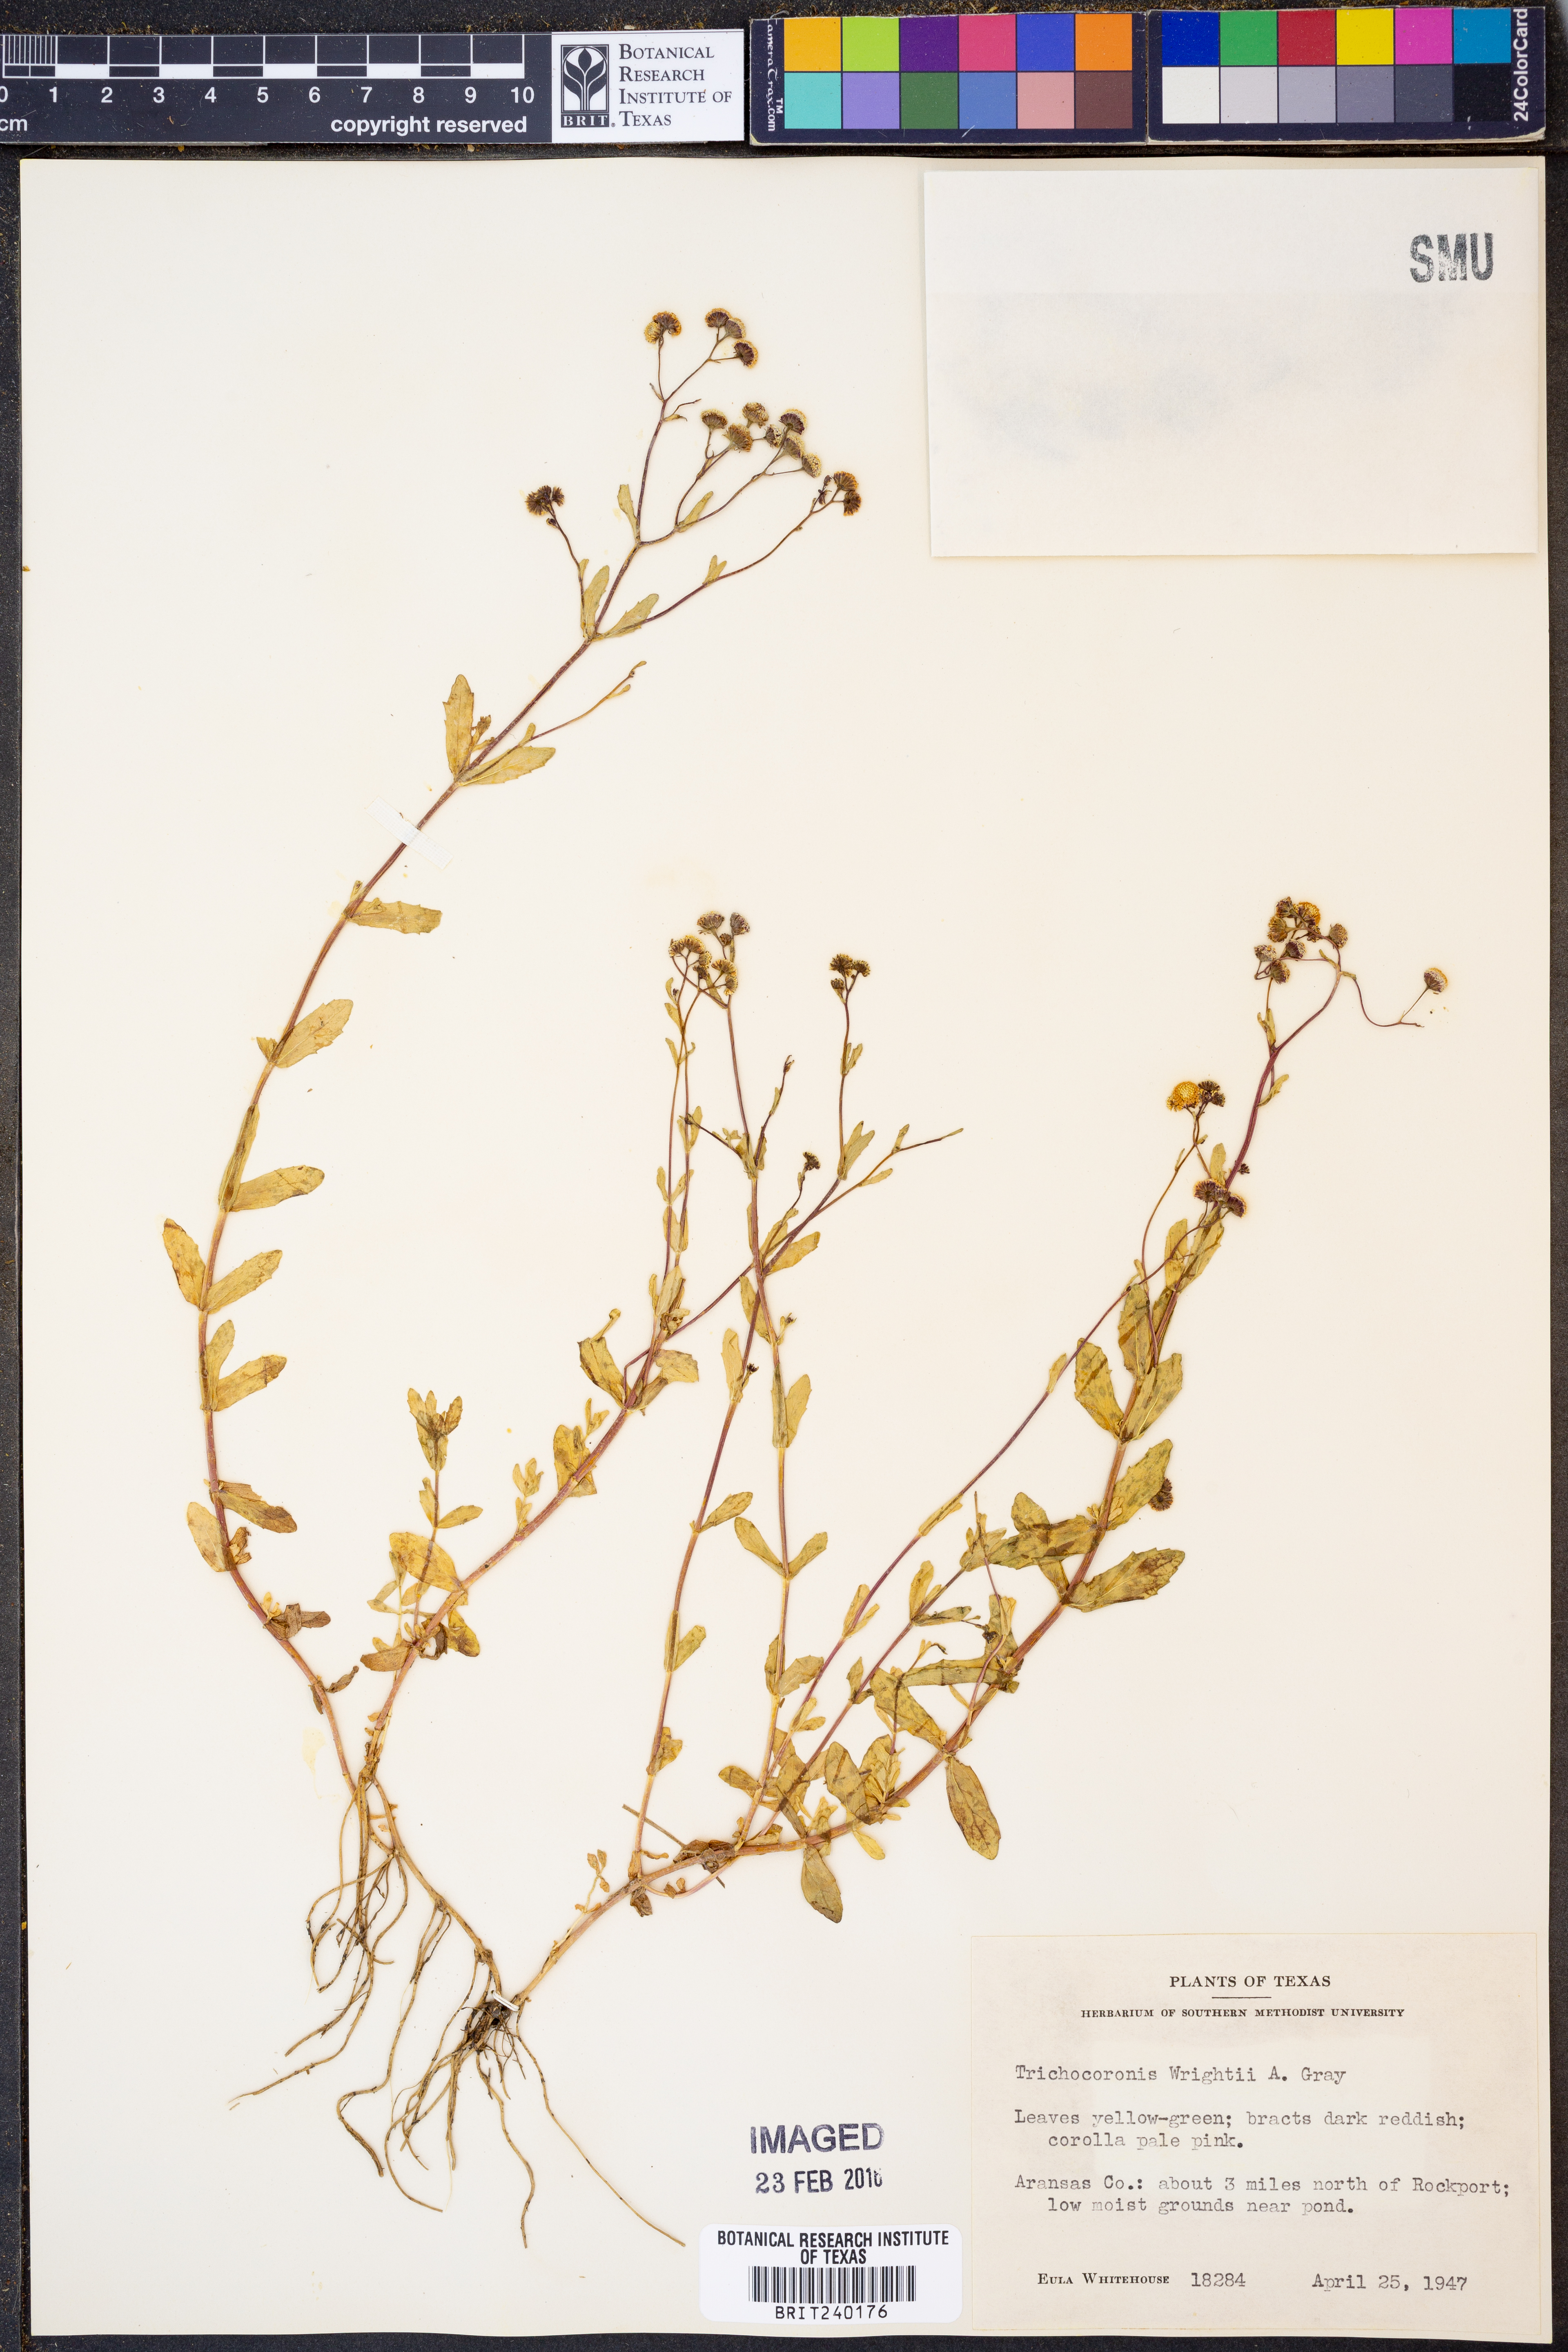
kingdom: Plantae
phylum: Tracheophyta
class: Magnoliopsida
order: Asterales
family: Asteraceae
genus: Trichocoronis
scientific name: Trichocoronis wrightii
